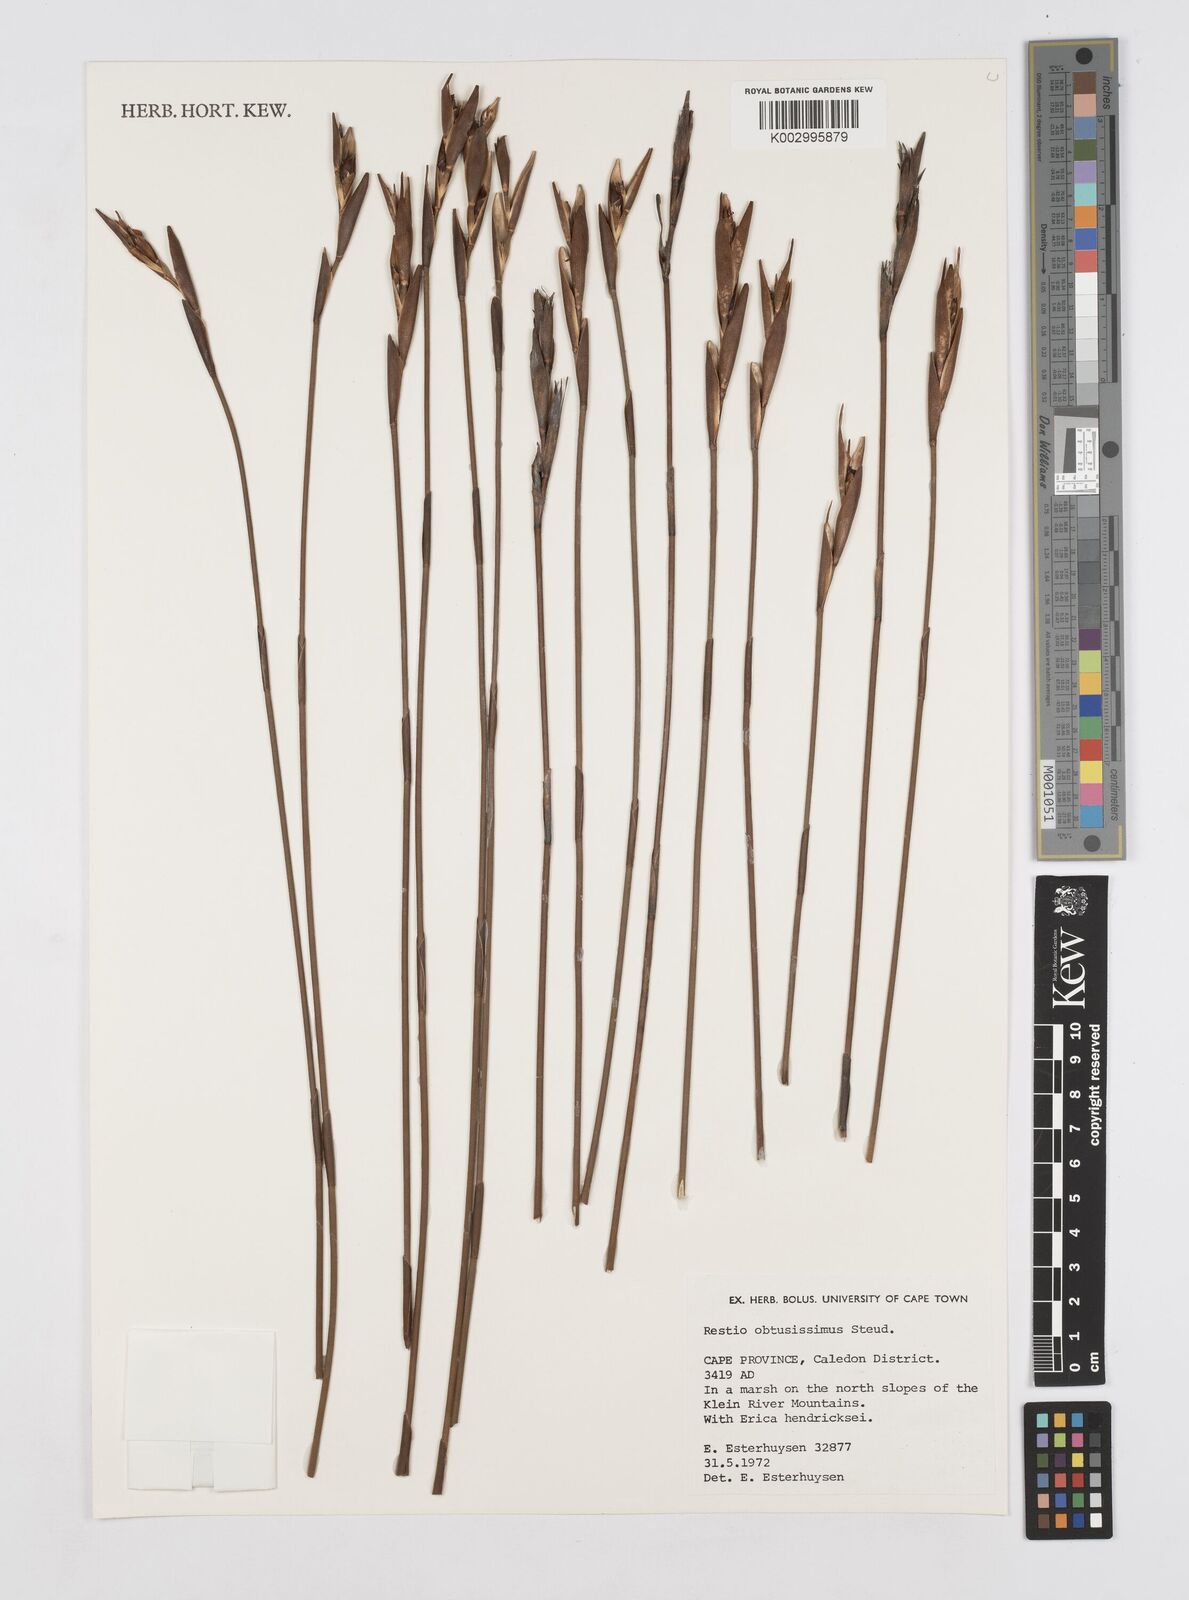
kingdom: Plantae
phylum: Tracheophyta
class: Liliopsida
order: Poales
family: Restionaceae
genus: Nevillea
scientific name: Nevillea obtusissimus
